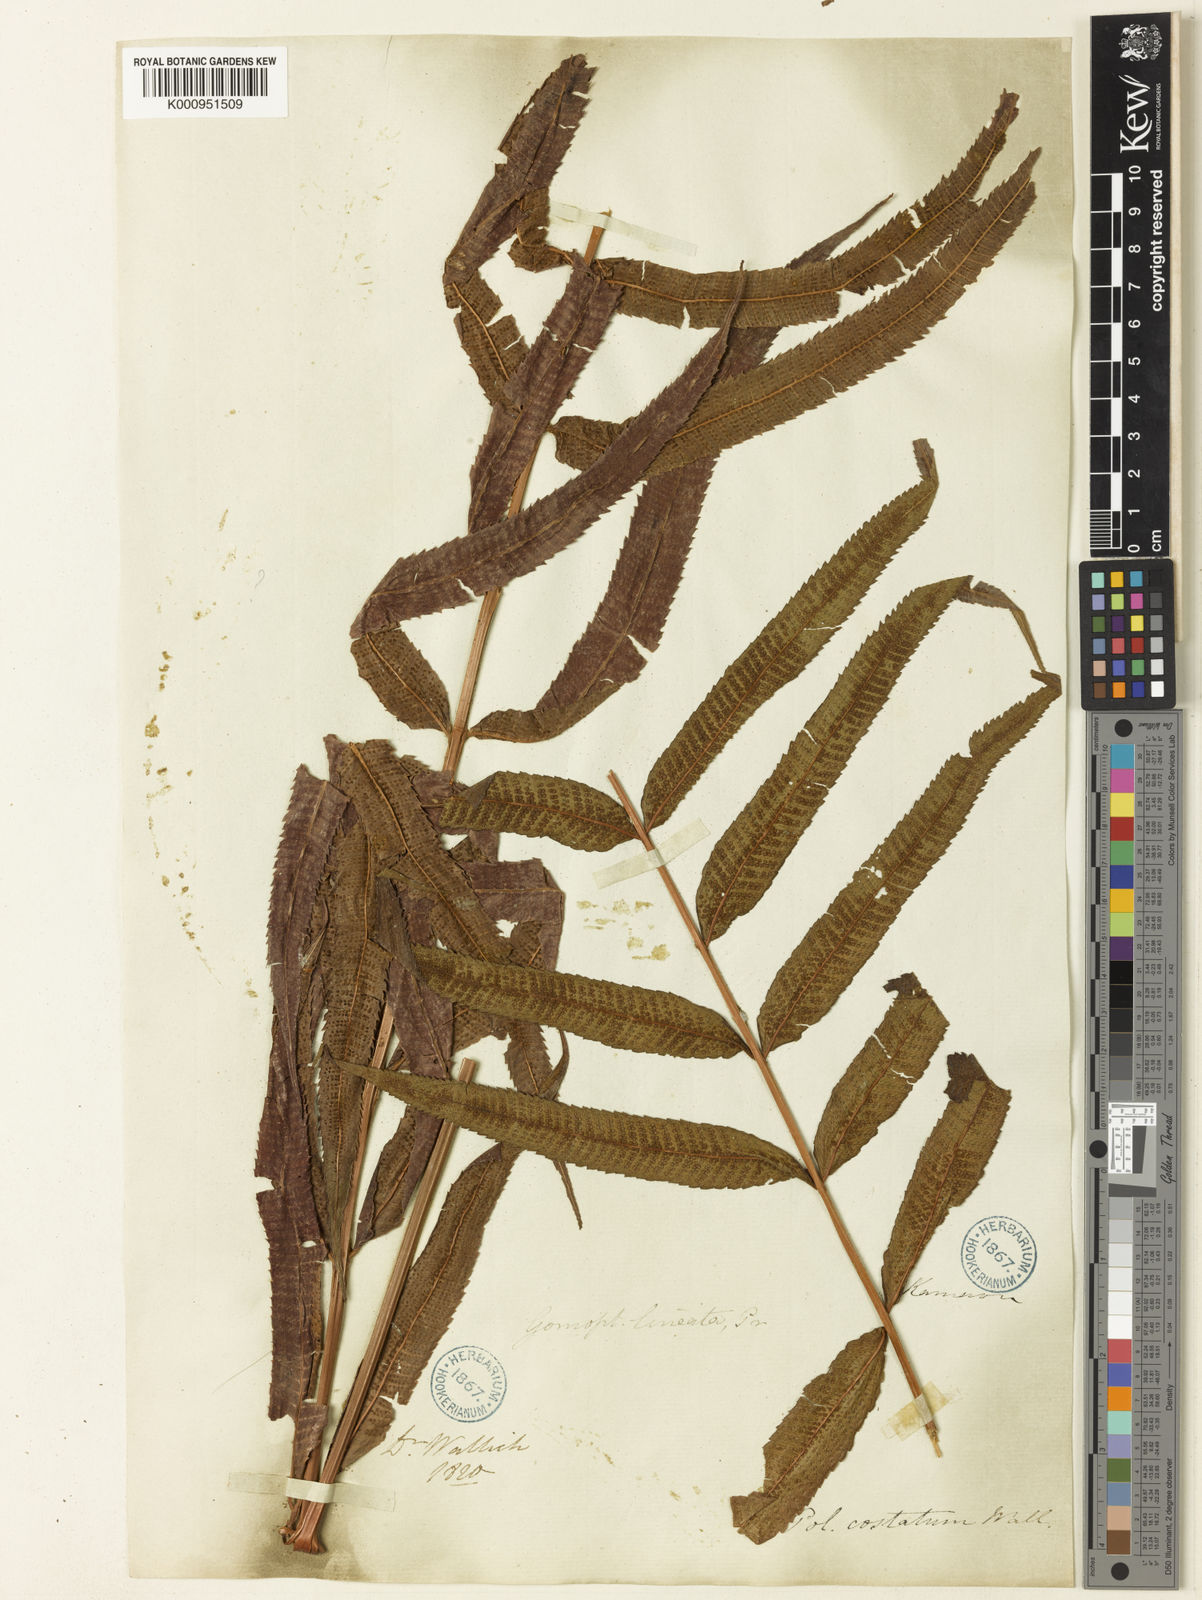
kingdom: Plantae
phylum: Tracheophyta
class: Polypodiopsida
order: Polypodiales
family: Thelypteridaceae
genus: Menisciopsis
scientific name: Menisciopsis penangiana
